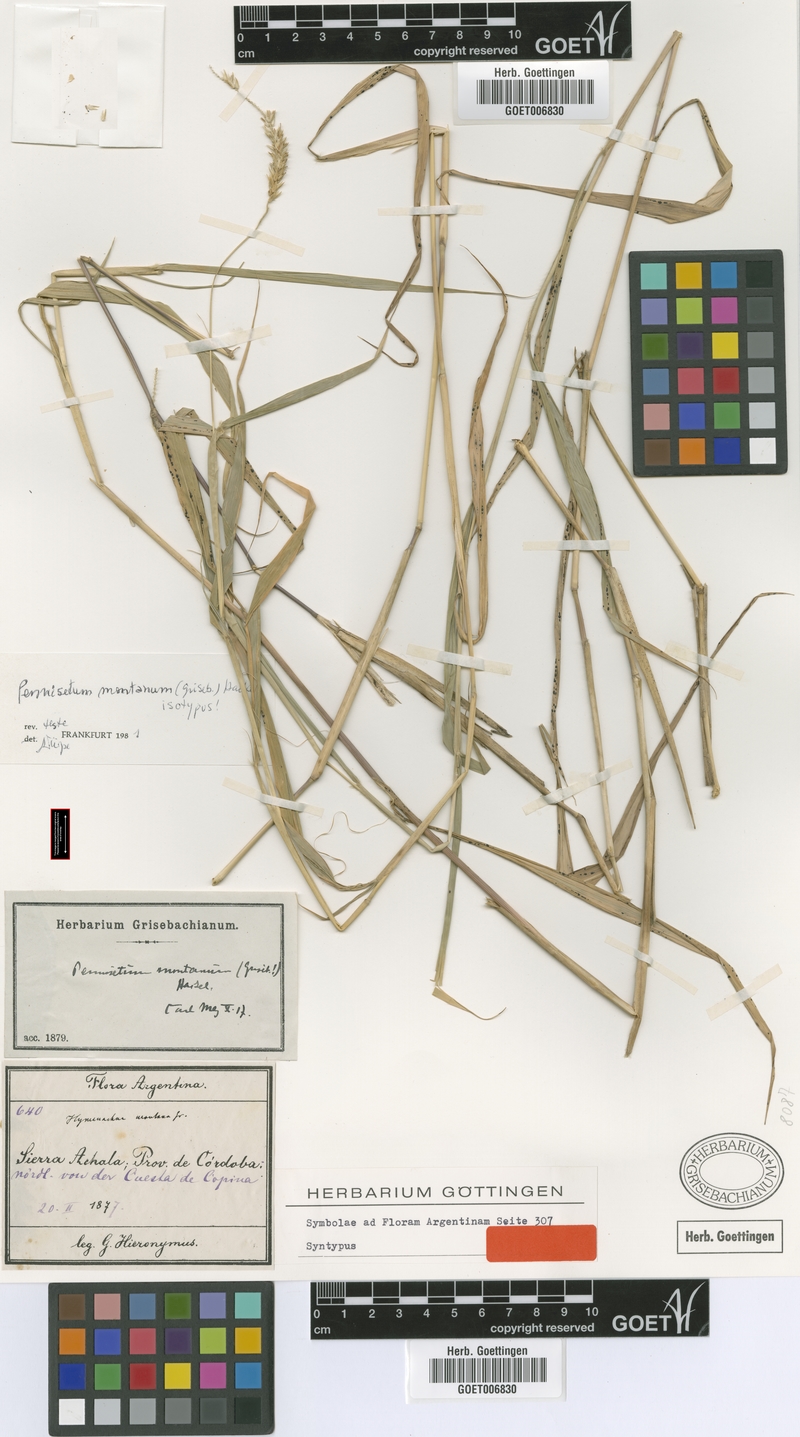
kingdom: Plantae
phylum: Tracheophyta
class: Liliopsida
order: Poales
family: Poaceae
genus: Cenchrus
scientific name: Cenchrus mutilatus
